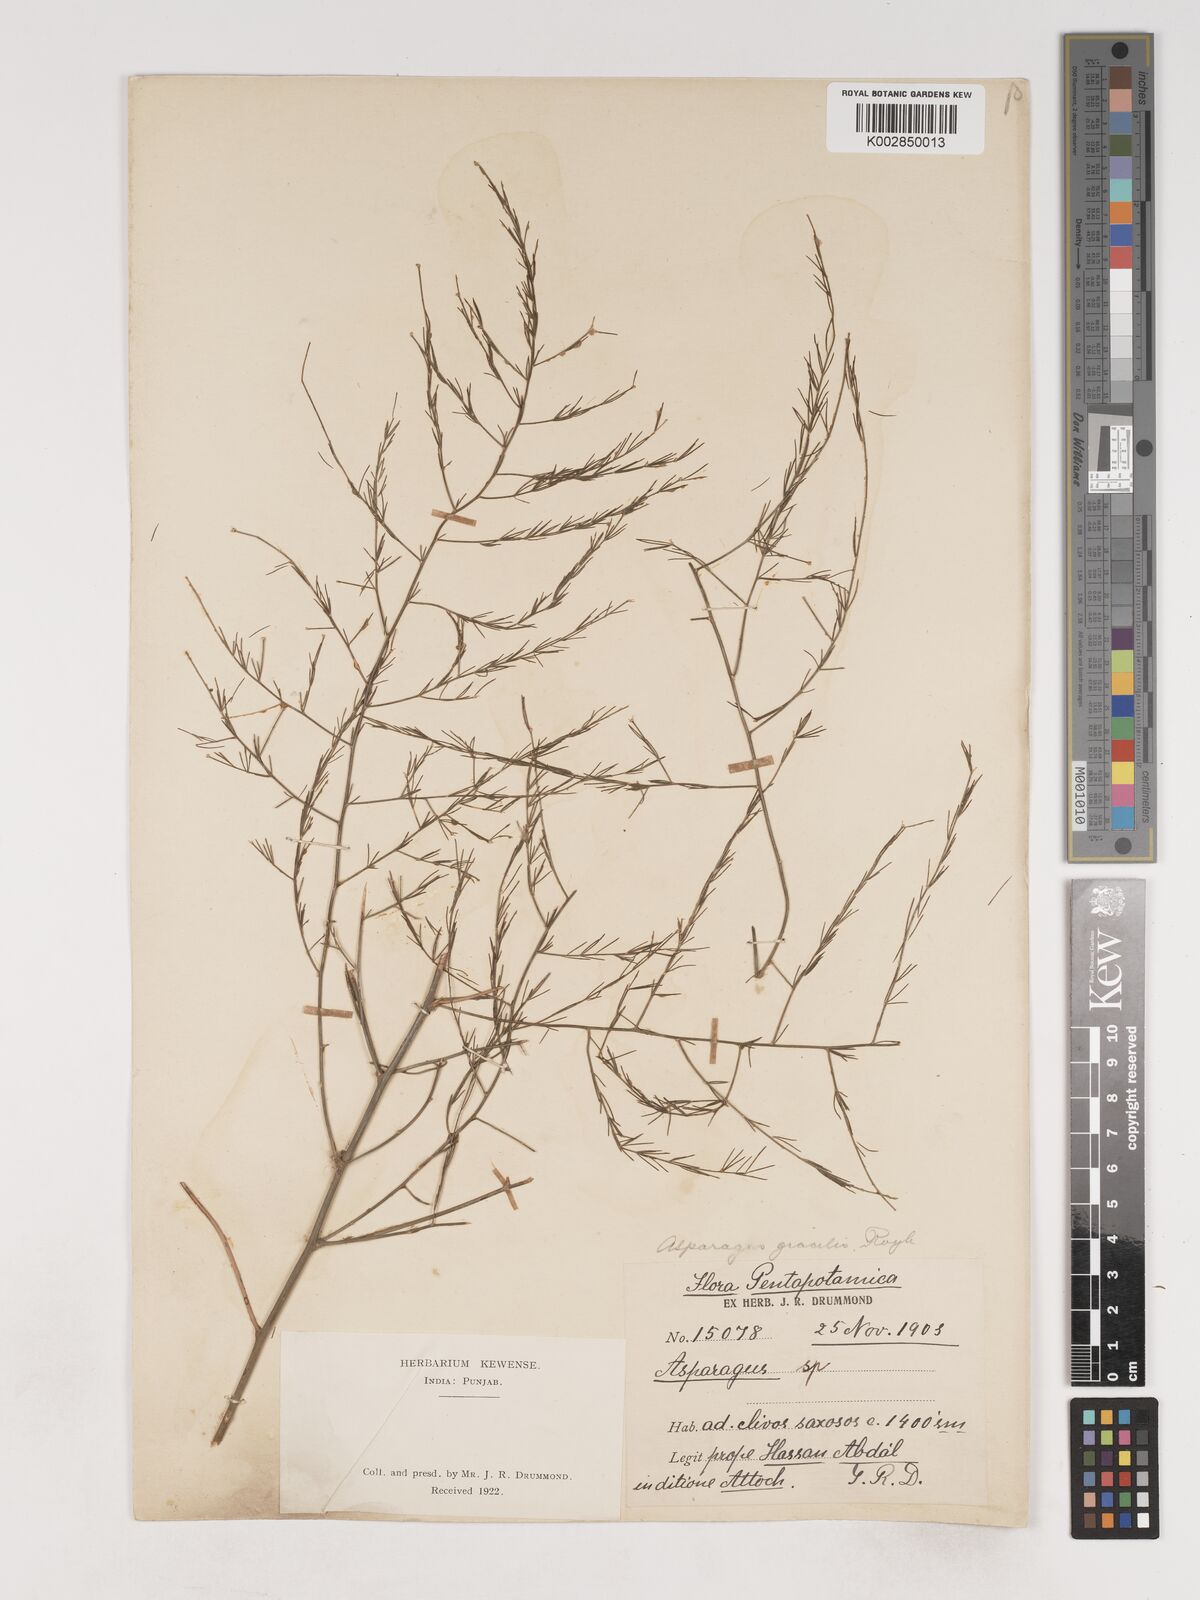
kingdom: Plantae
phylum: Tracheophyta
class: Liliopsida
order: Asparagales
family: Asparagaceae
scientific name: Asparagaceae
